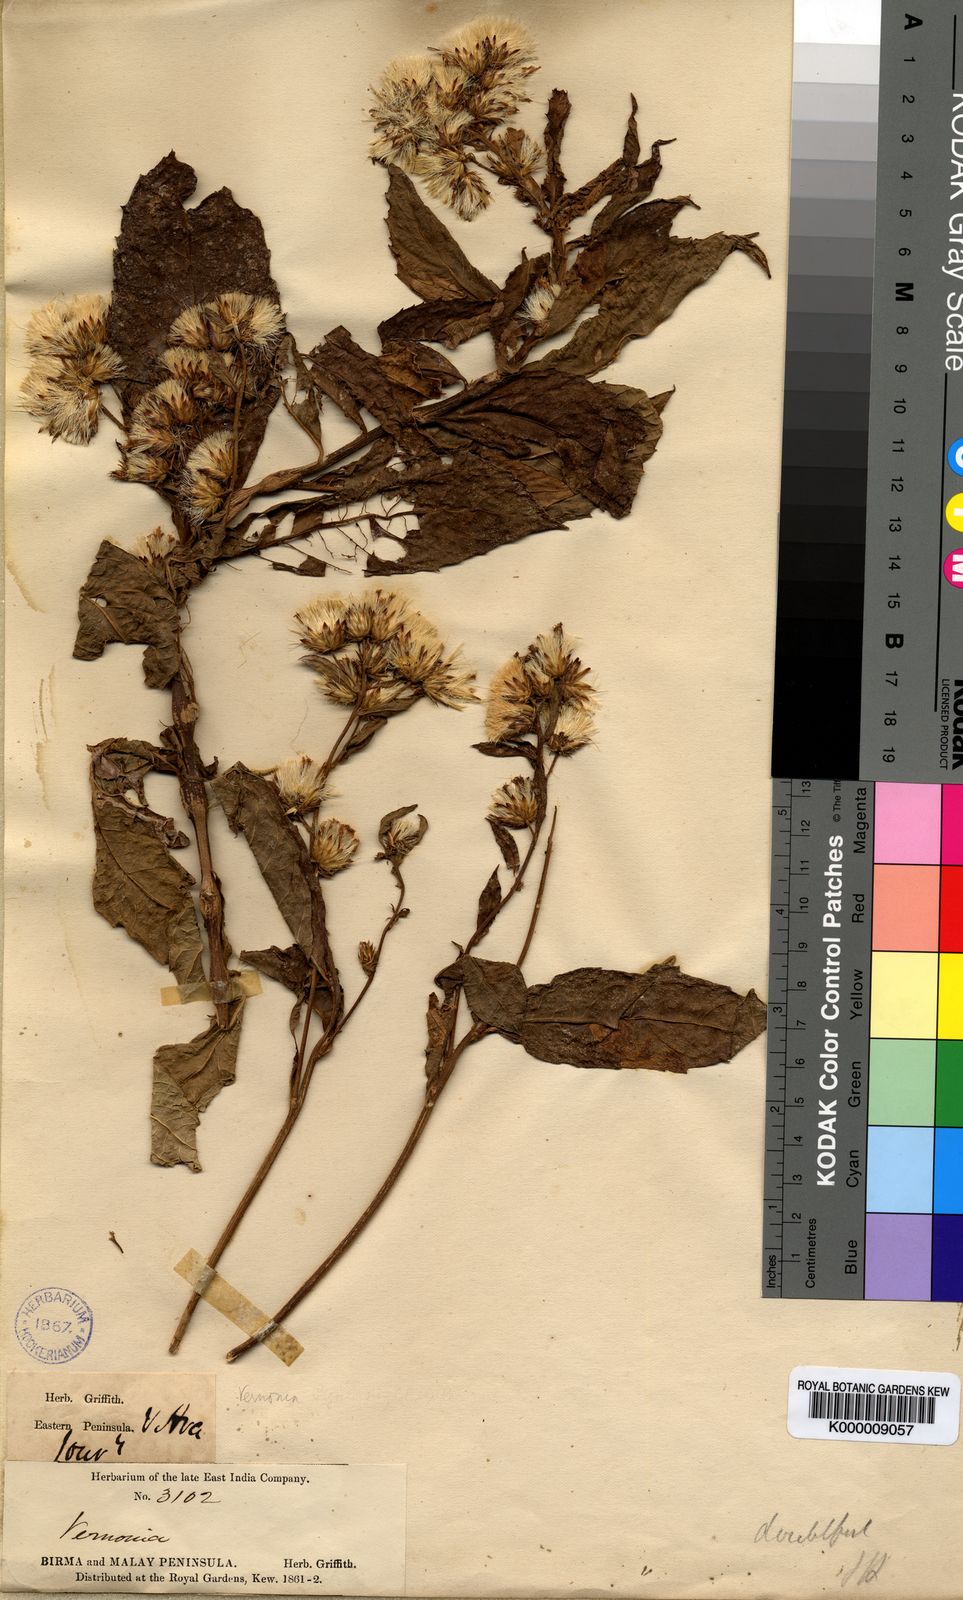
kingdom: Plantae
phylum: Tracheophyta
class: Magnoliopsida
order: Asterales
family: Asteraceae
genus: Vernonia
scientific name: Vernonia
